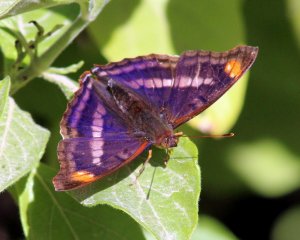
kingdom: Animalia
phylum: Arthropoda
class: Insecta
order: Lepidoptera
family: Nymphalidae
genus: Doxocopa
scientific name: Doxocopa pavon
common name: Pavon Emperor
